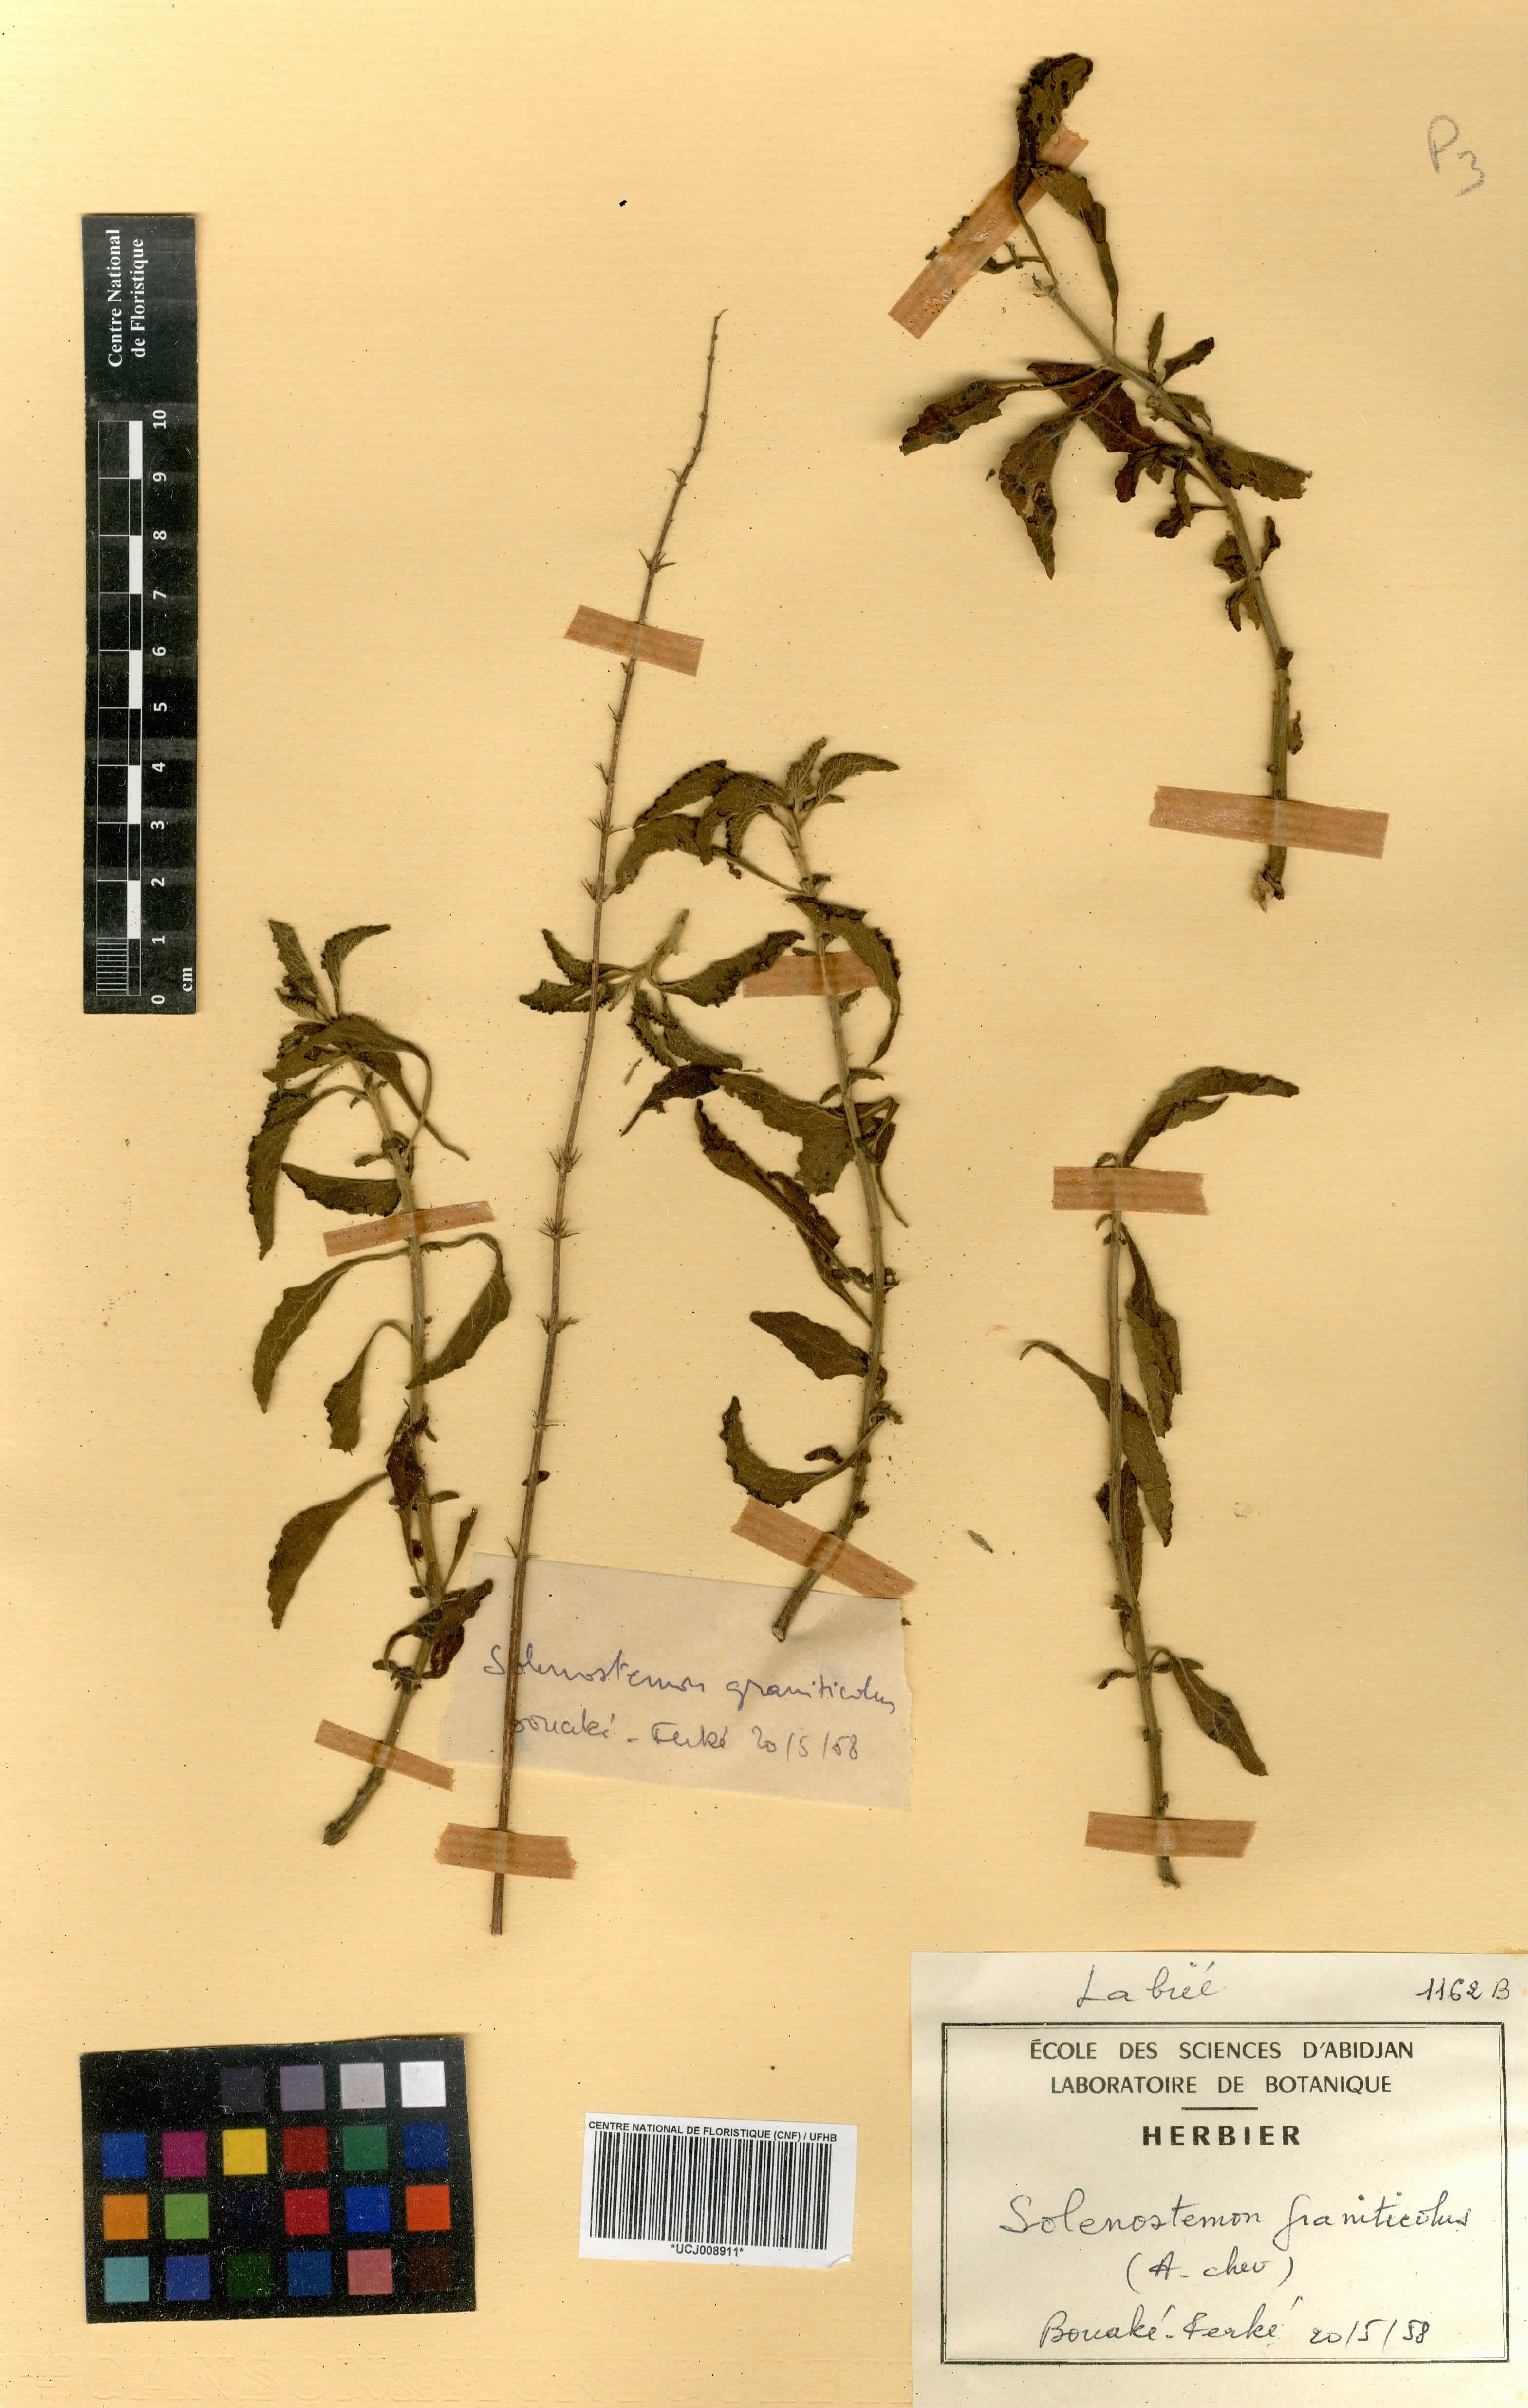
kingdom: Plantae
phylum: Tracheophyta
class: Magnoliopsida
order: Lamiales
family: Lamiaceae
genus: Coleus
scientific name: Coleus graniticola
